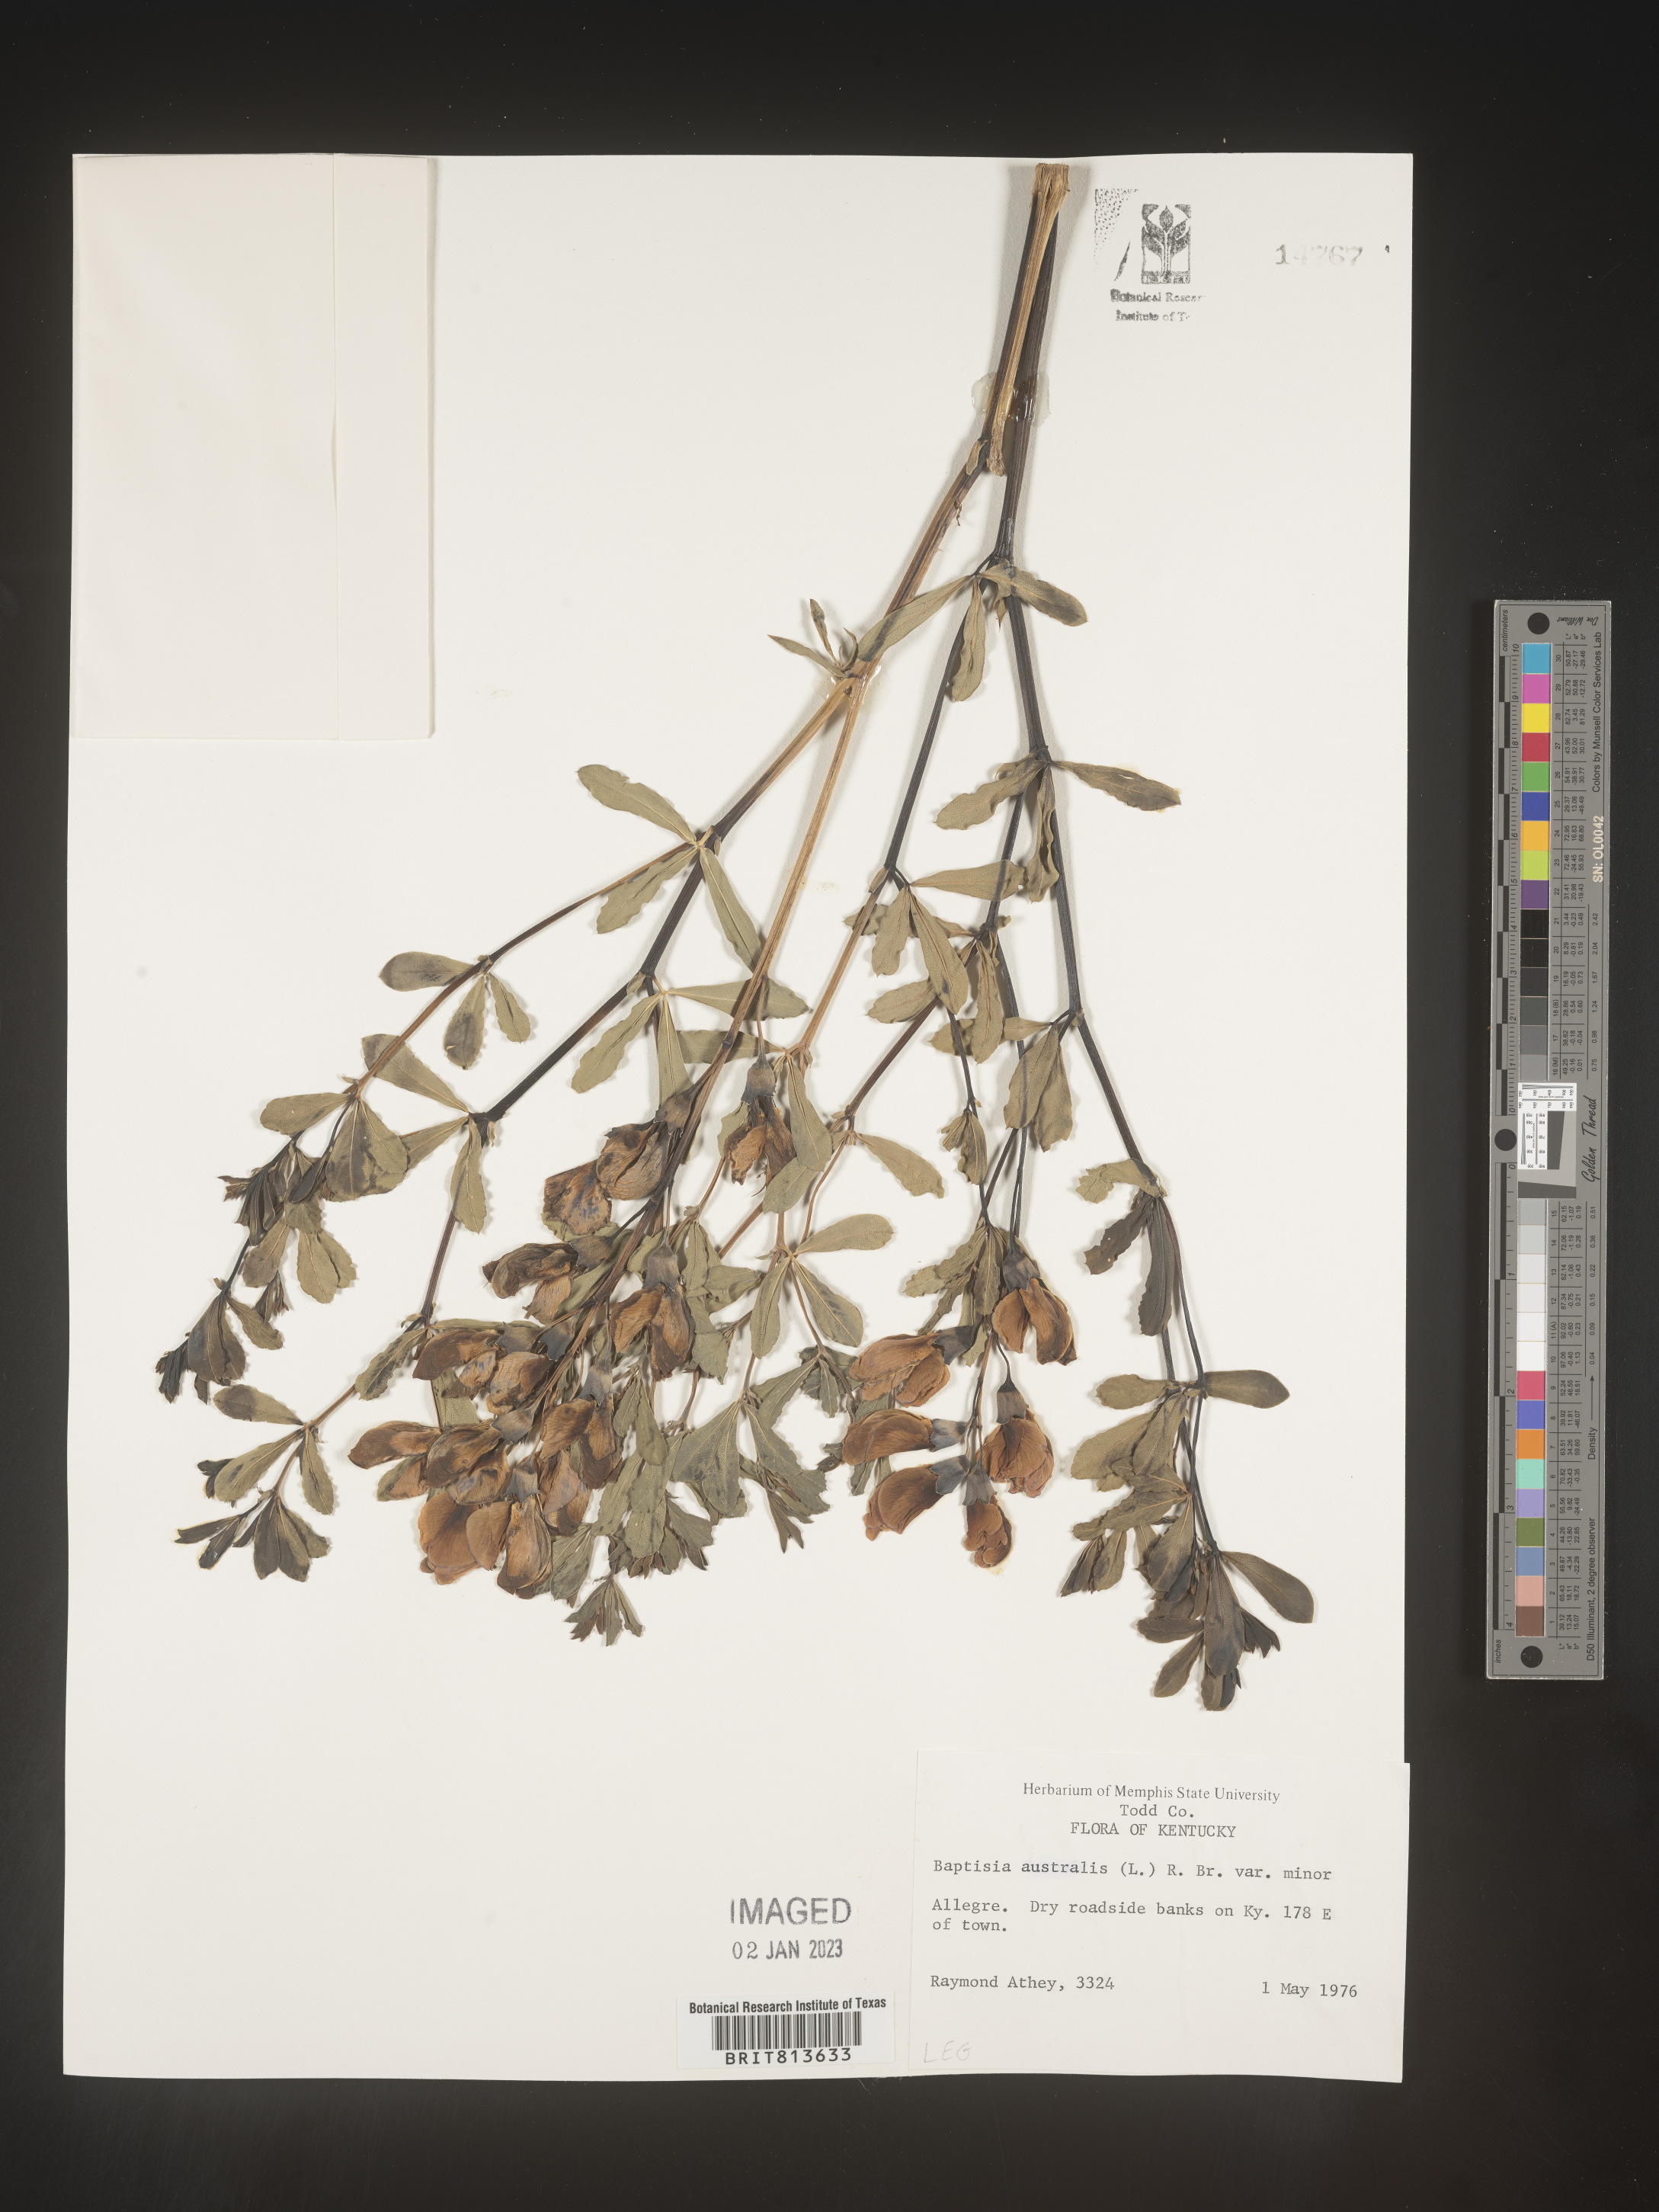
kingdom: Plantae
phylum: Tracheophyta
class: Magnoliopsida
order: Fabales
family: Fabaceae
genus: Baptisia
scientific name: Baptisia australis
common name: Blue false indigo
